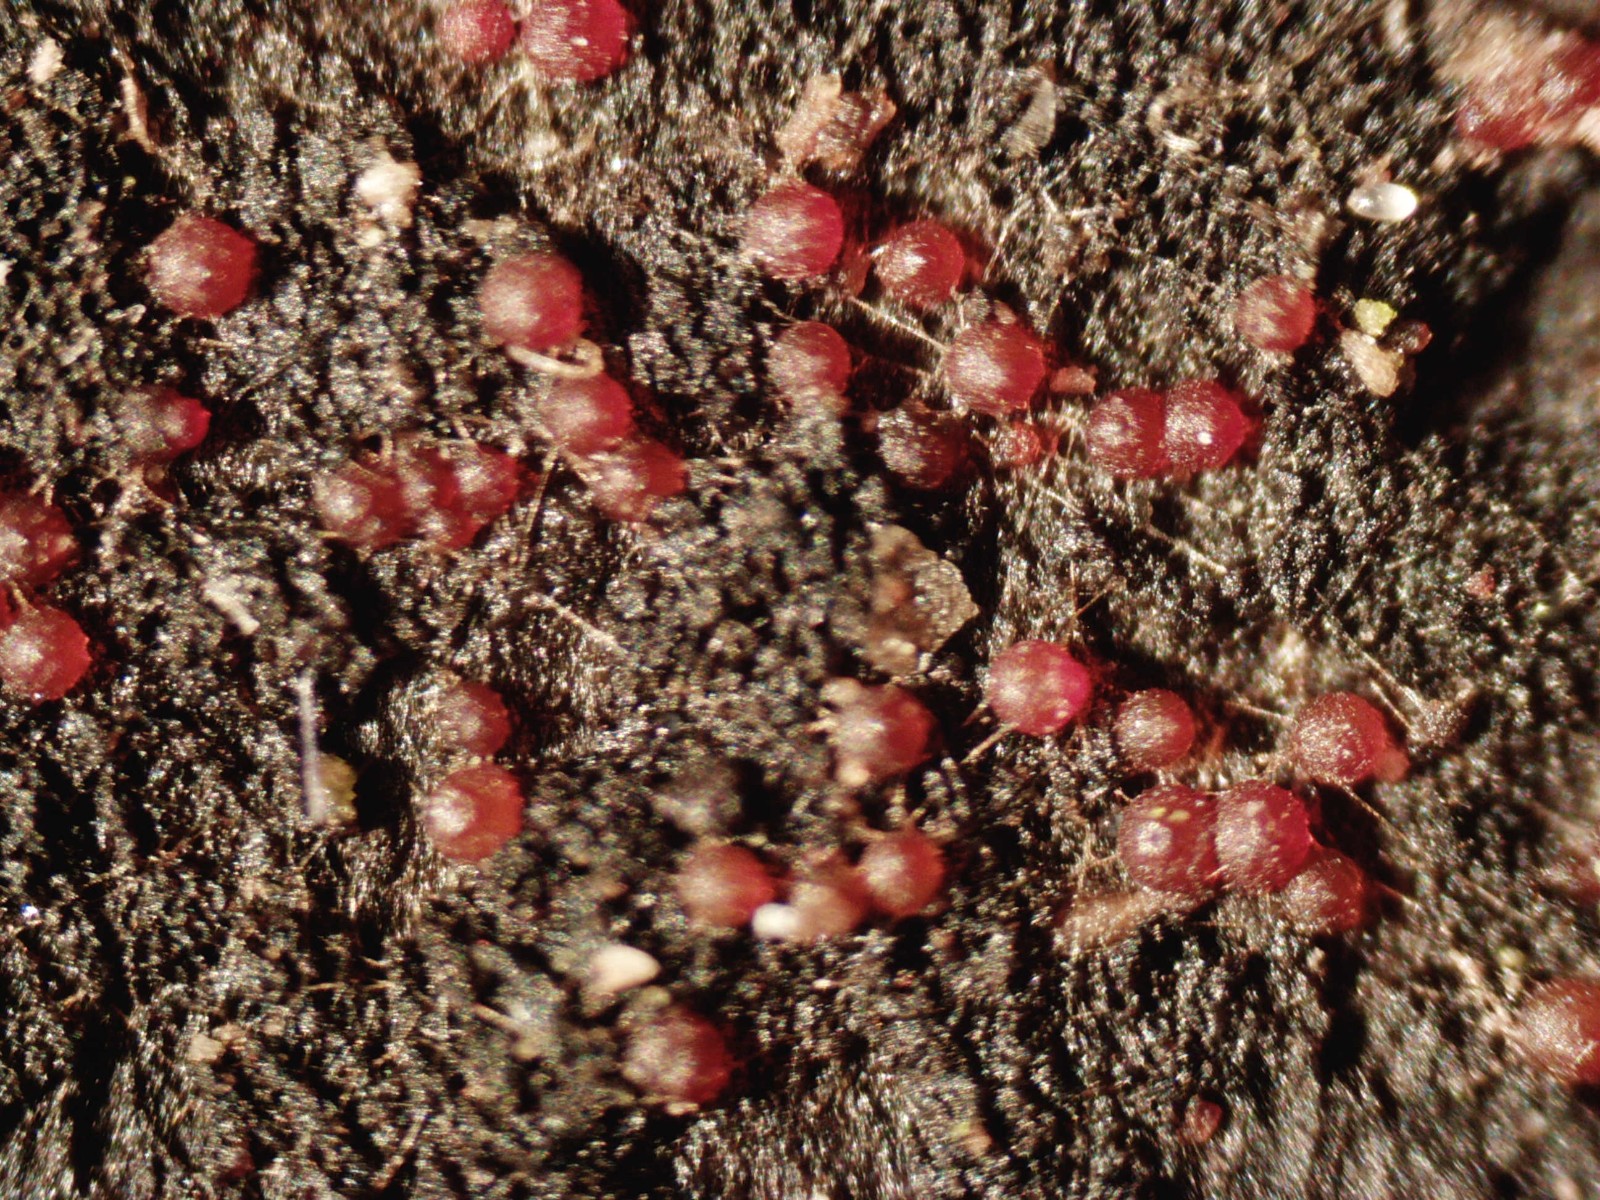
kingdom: Fungi
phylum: Ascomycota
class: Sordariomycetes
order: Hypocreales
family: Nectriaceae
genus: Dialonectria
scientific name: Dialonectria episphaeria
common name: kulskorpe-cinnobersvamp
